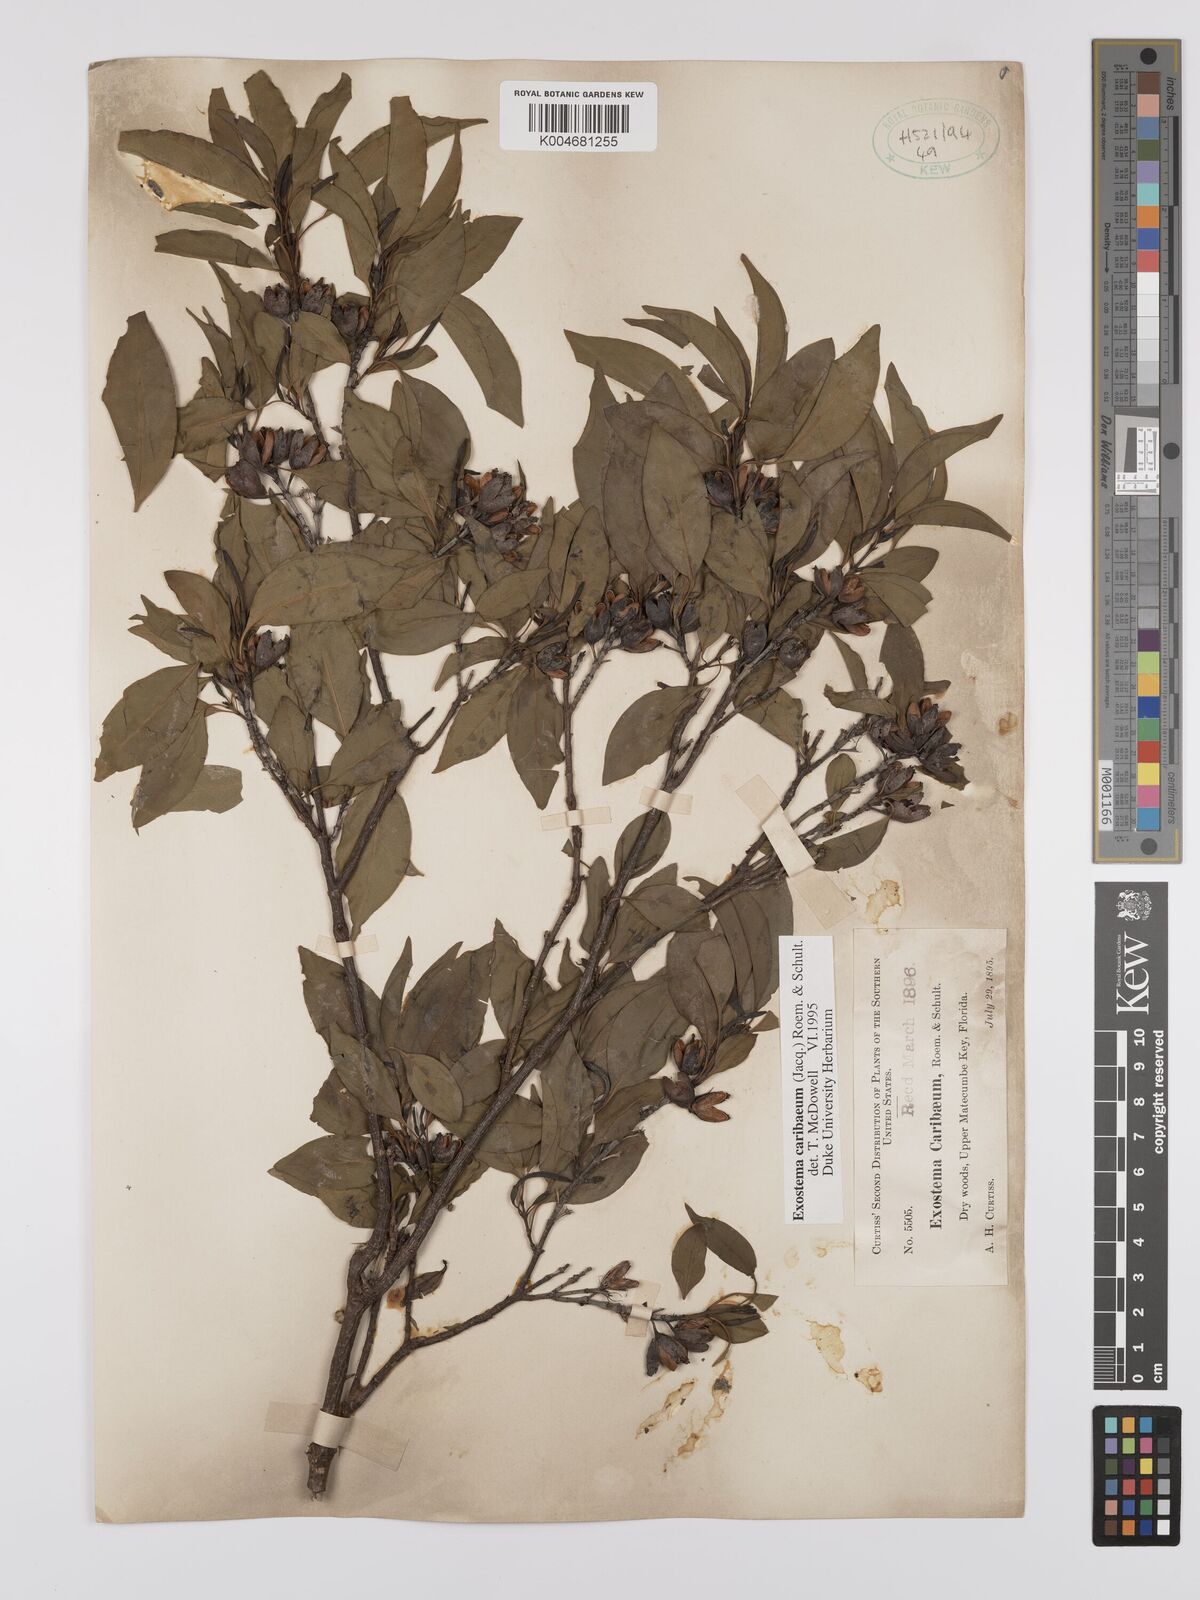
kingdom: Plantae
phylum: Tracheophyta
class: Magnoliopsida
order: Gentianales
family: Rubiaceae
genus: Exostema
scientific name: Exostema caribaeum
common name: Princewood
